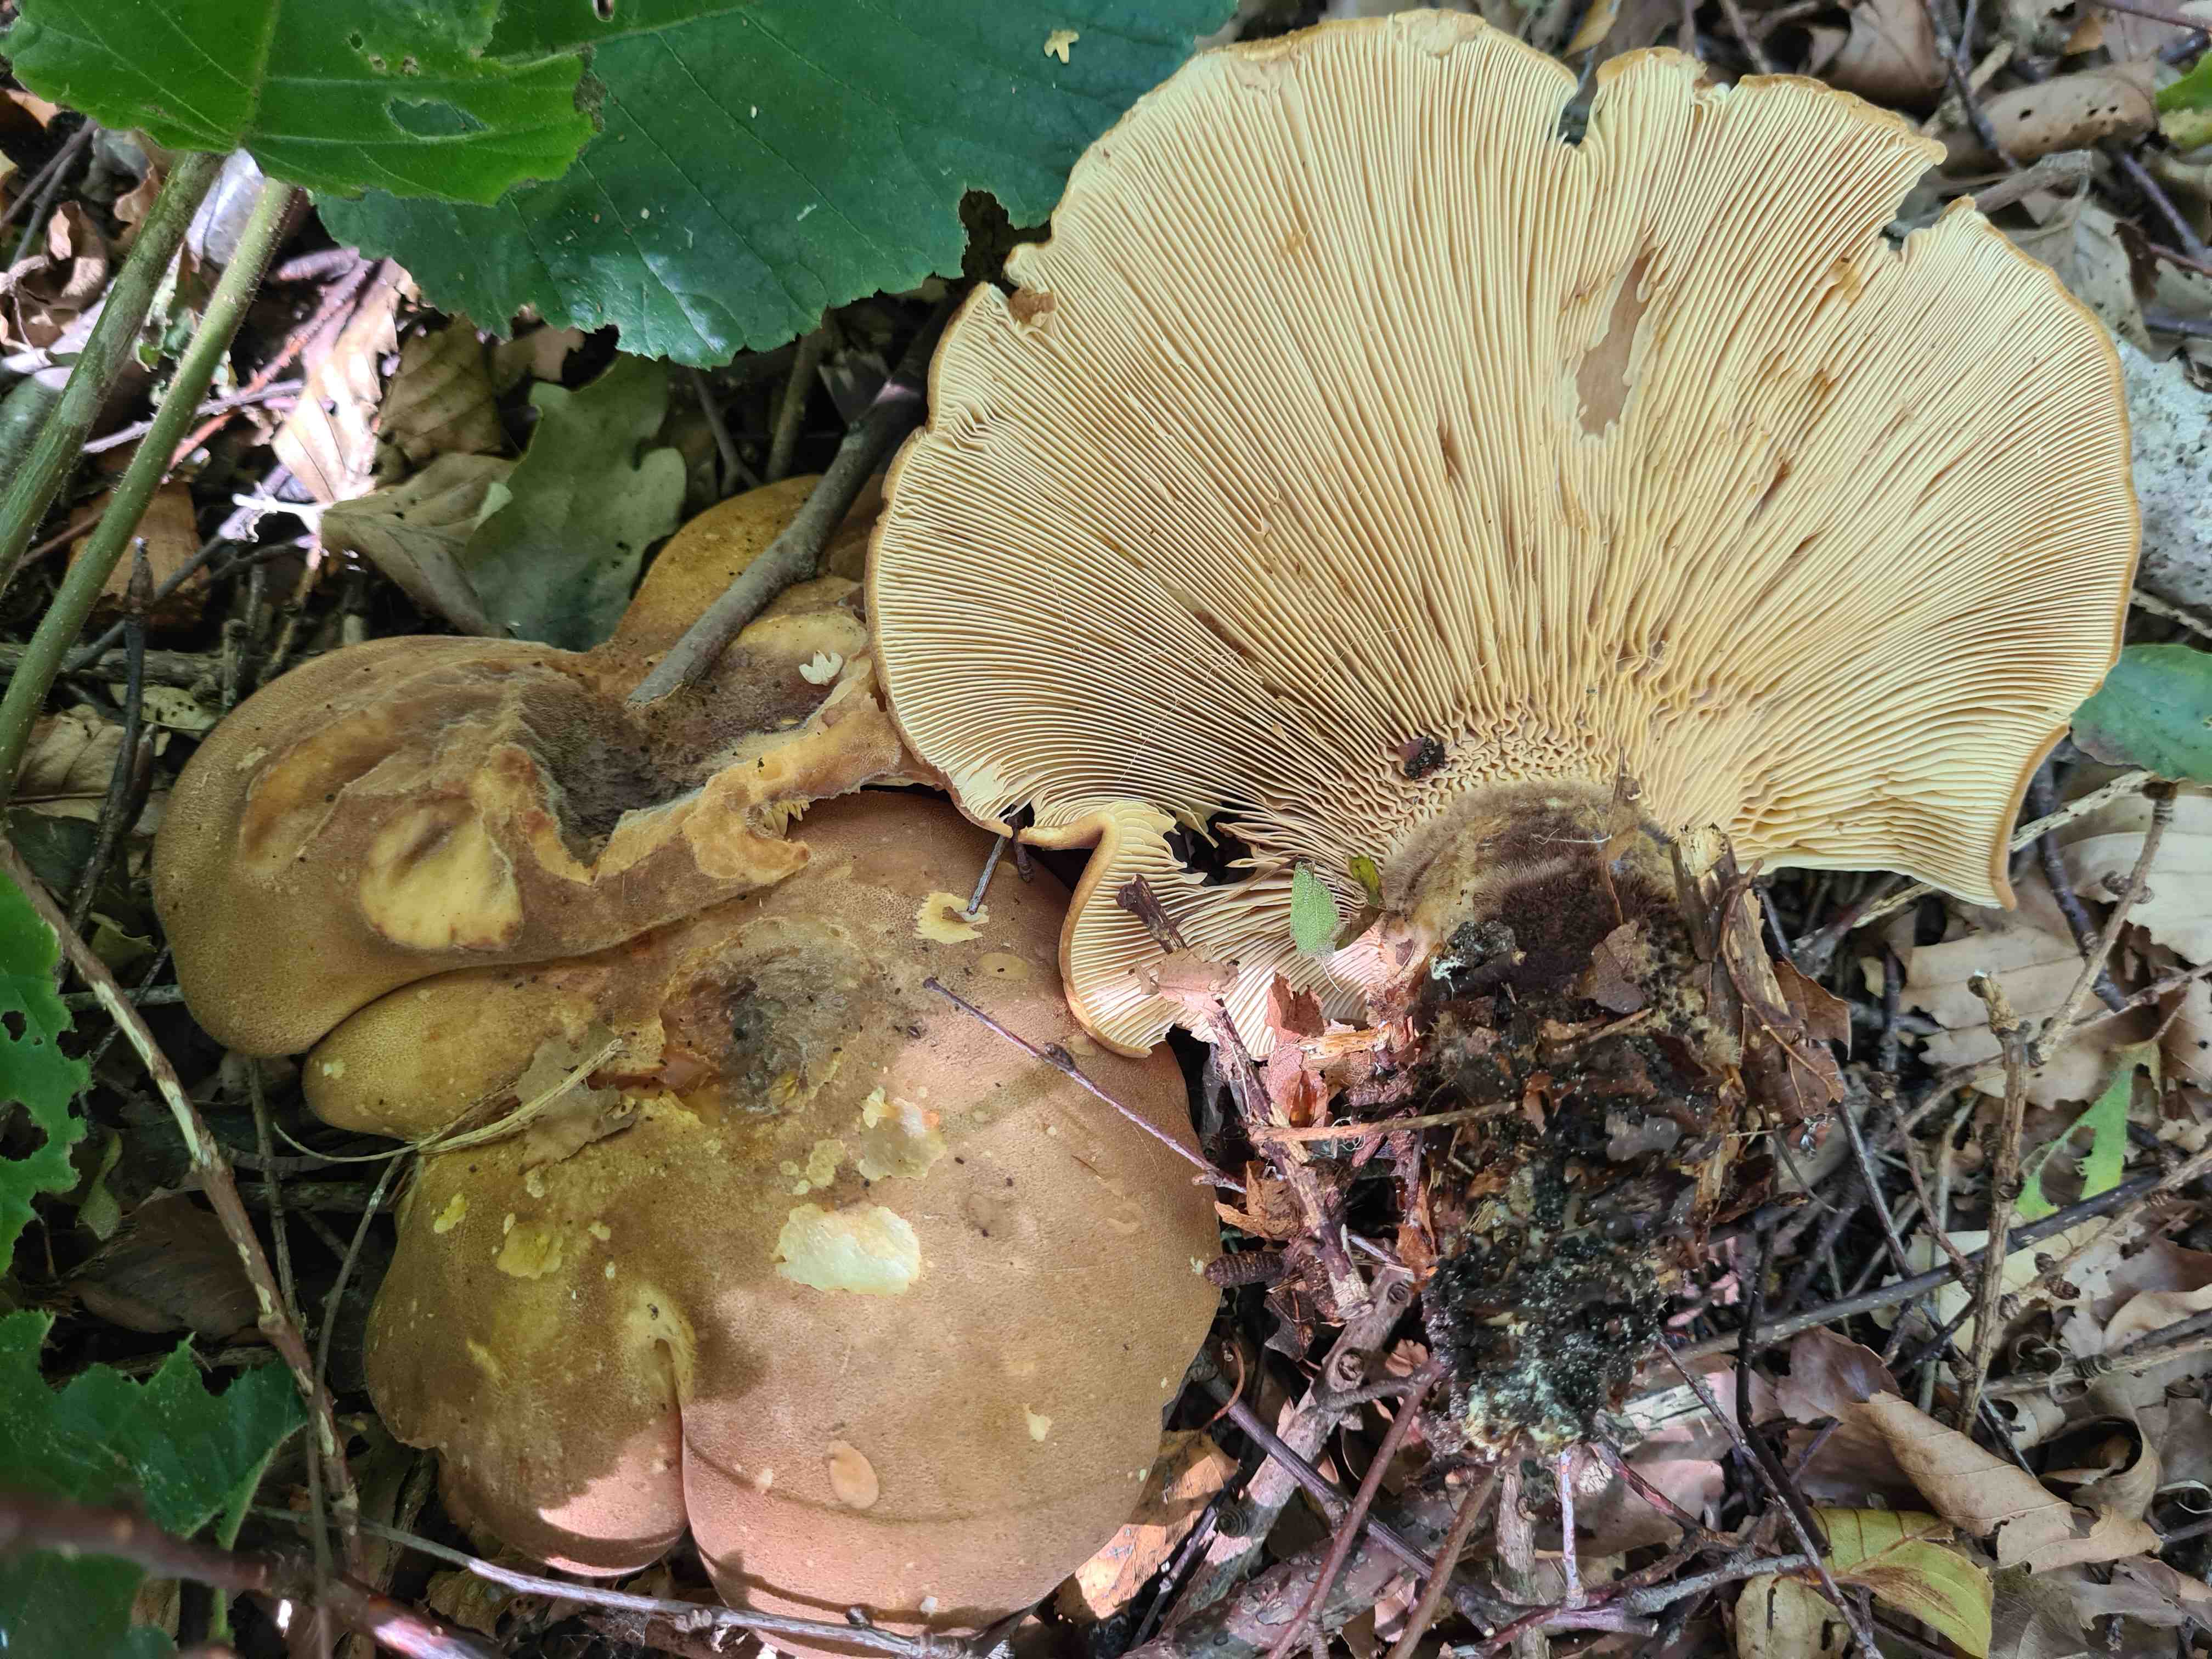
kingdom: Fungi
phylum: Basidiomycota
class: Agaricomycetes
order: Boletales
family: Tapinellaceae
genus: Tapinella
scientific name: Tapinella atrotomentosa
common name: sortfiltet viftesvamp
